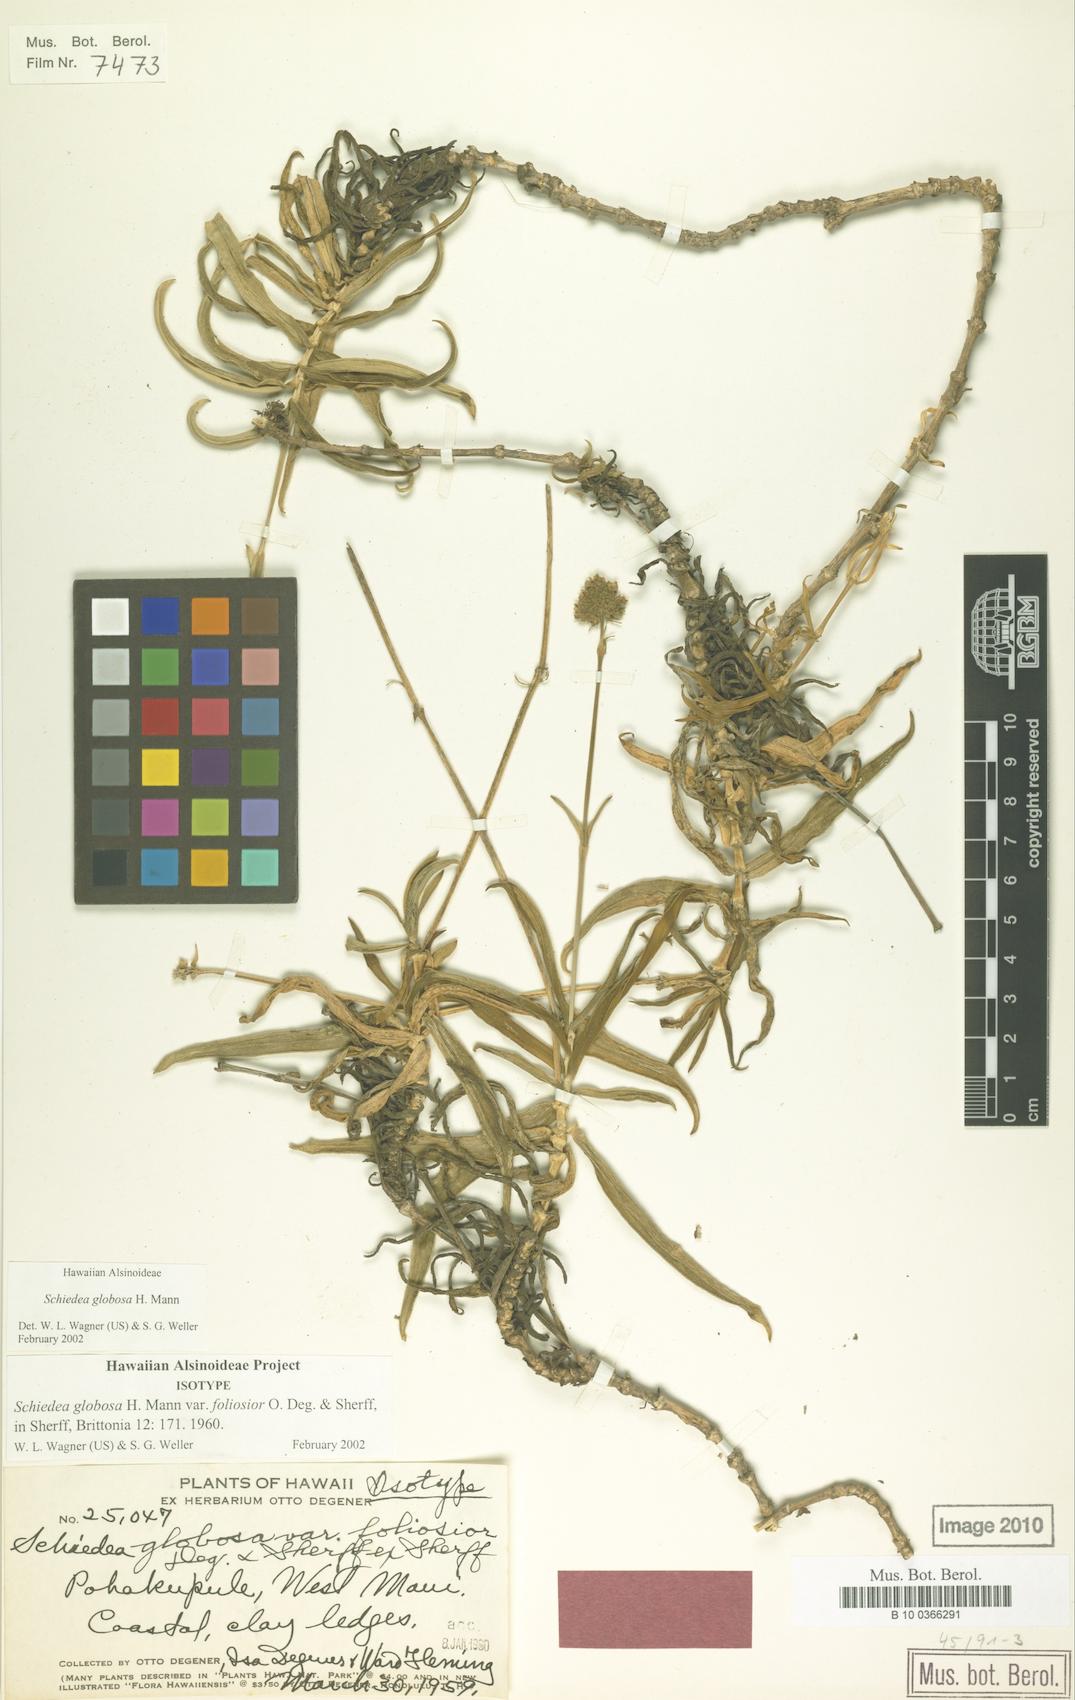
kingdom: Plantae
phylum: Tracheophyta
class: Magnoliopsida
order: Caryophyllales
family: Caryophyllaceae
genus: Schiedea
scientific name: Schiedea globosa
